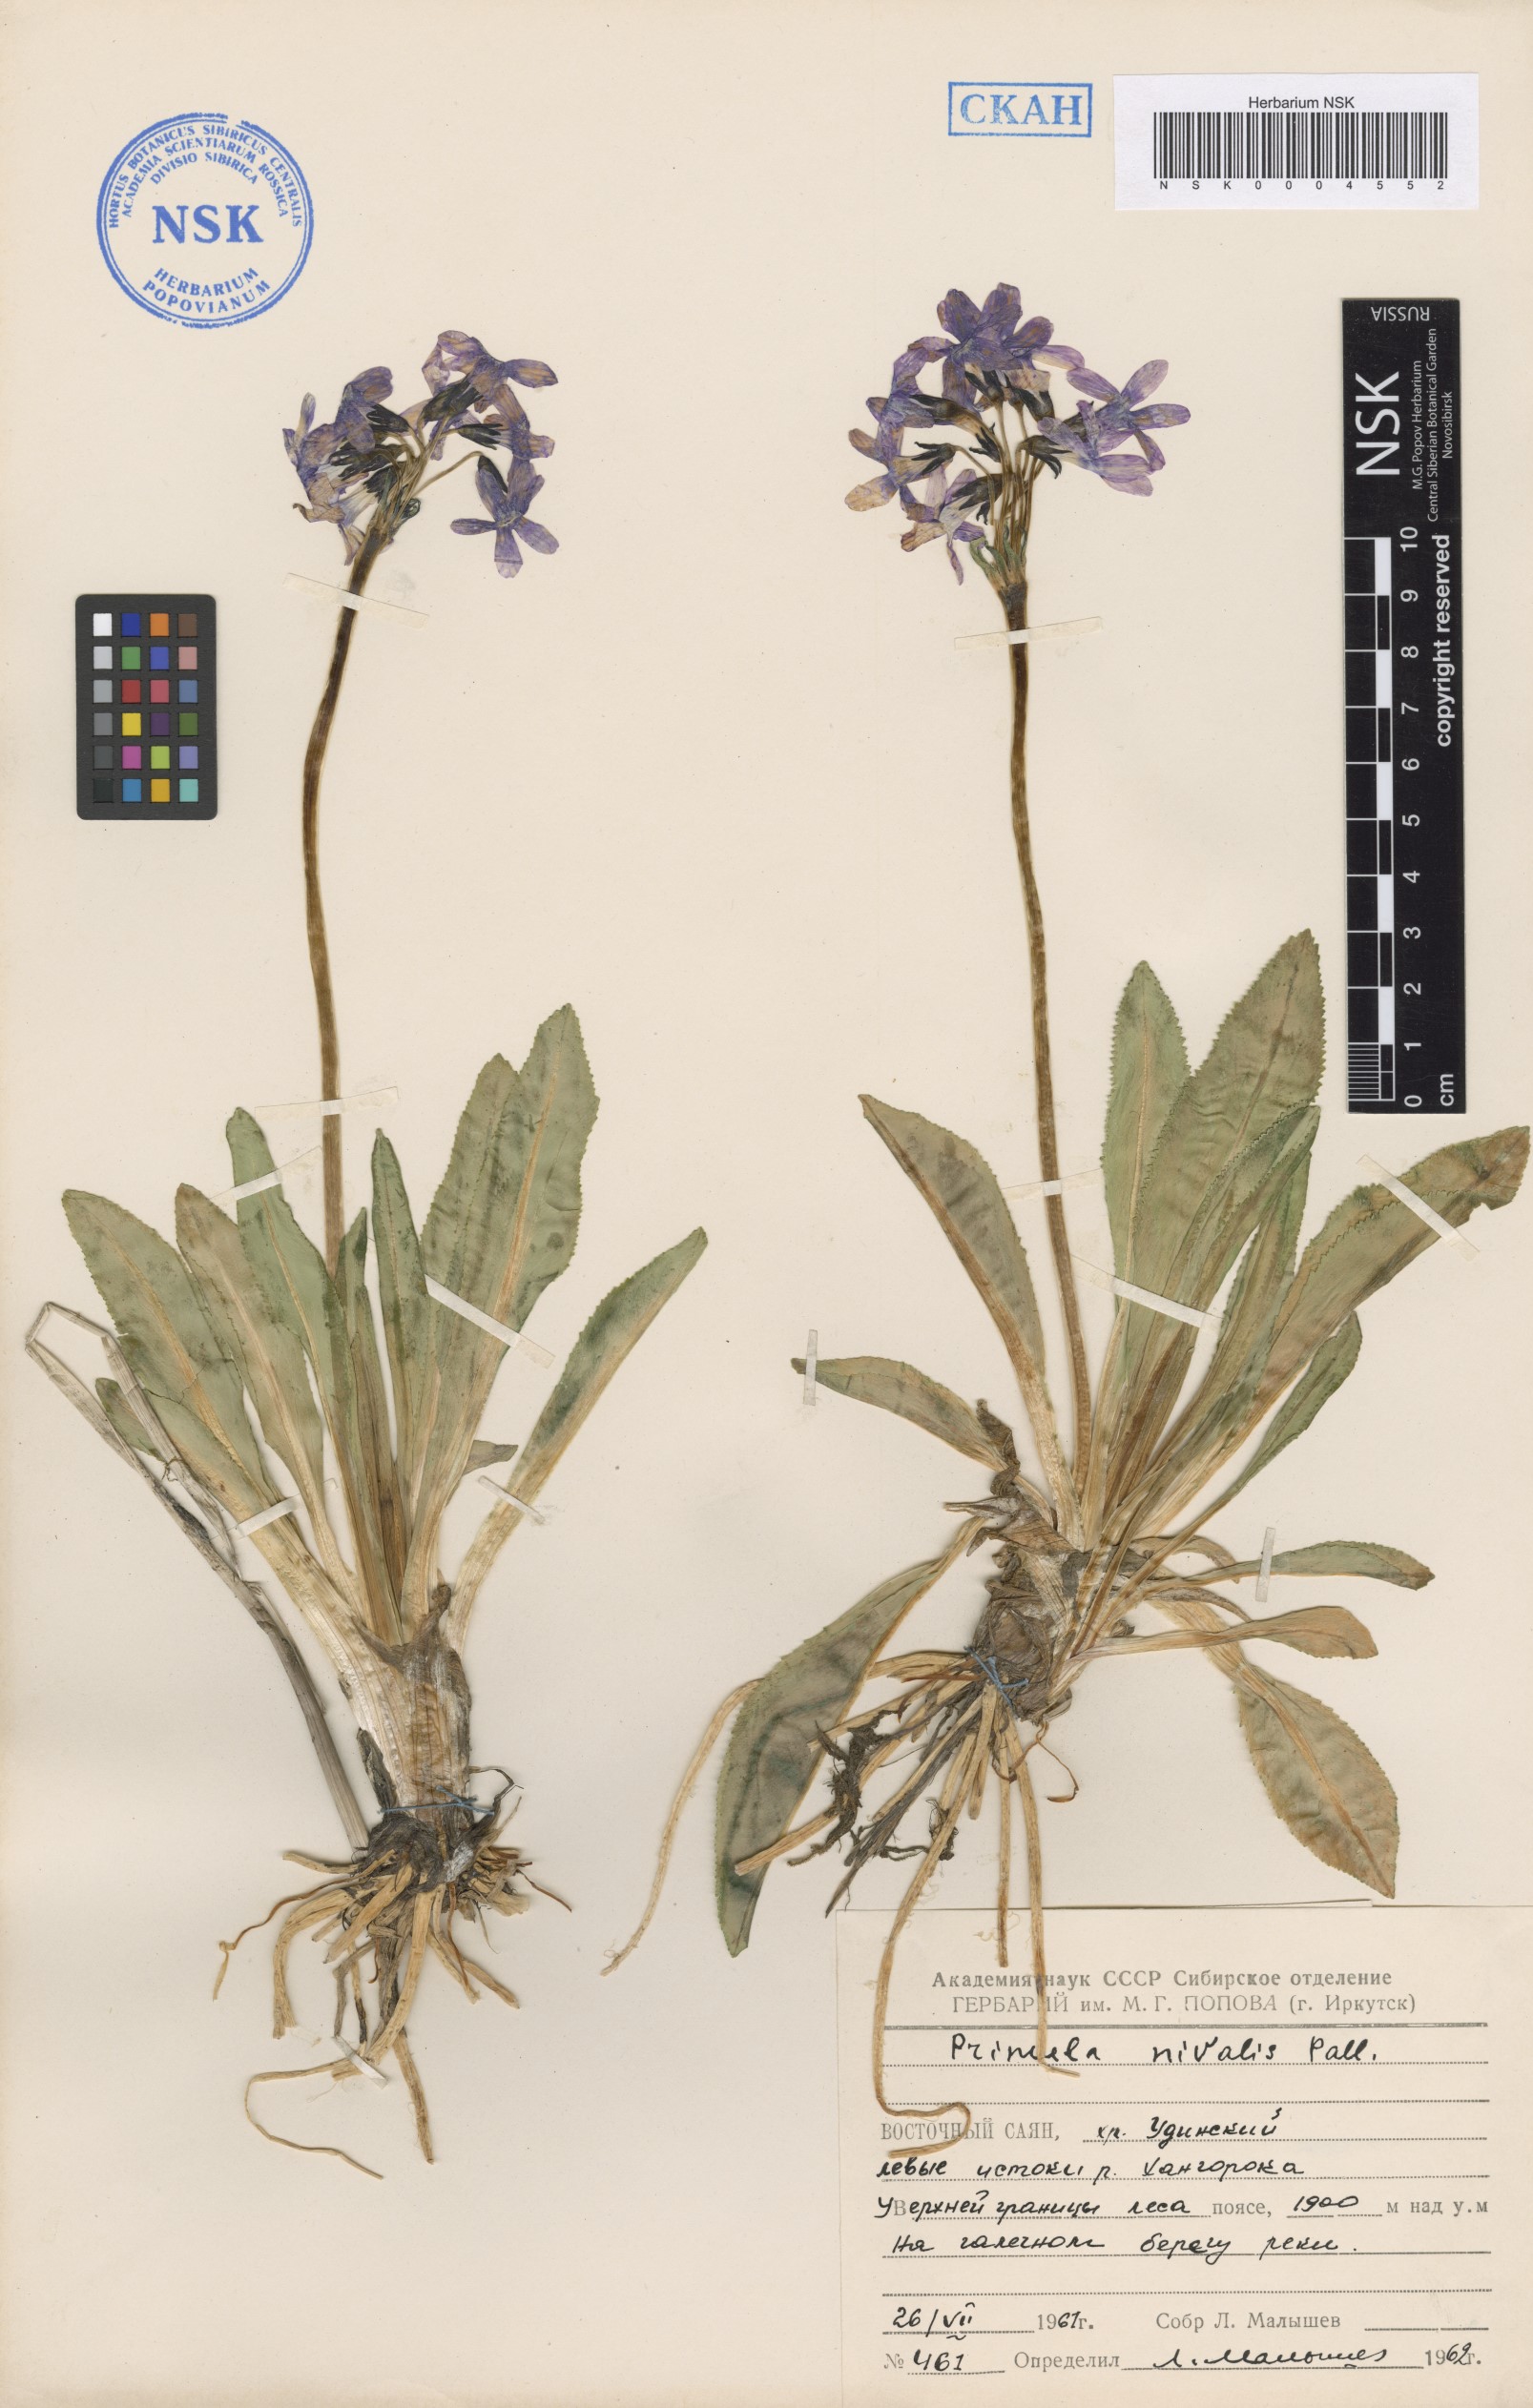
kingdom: Plantae
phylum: Tracheophyta
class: Magnoliopsida
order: Ericales
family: Primulaceae
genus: Primula
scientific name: Primula nivalis
